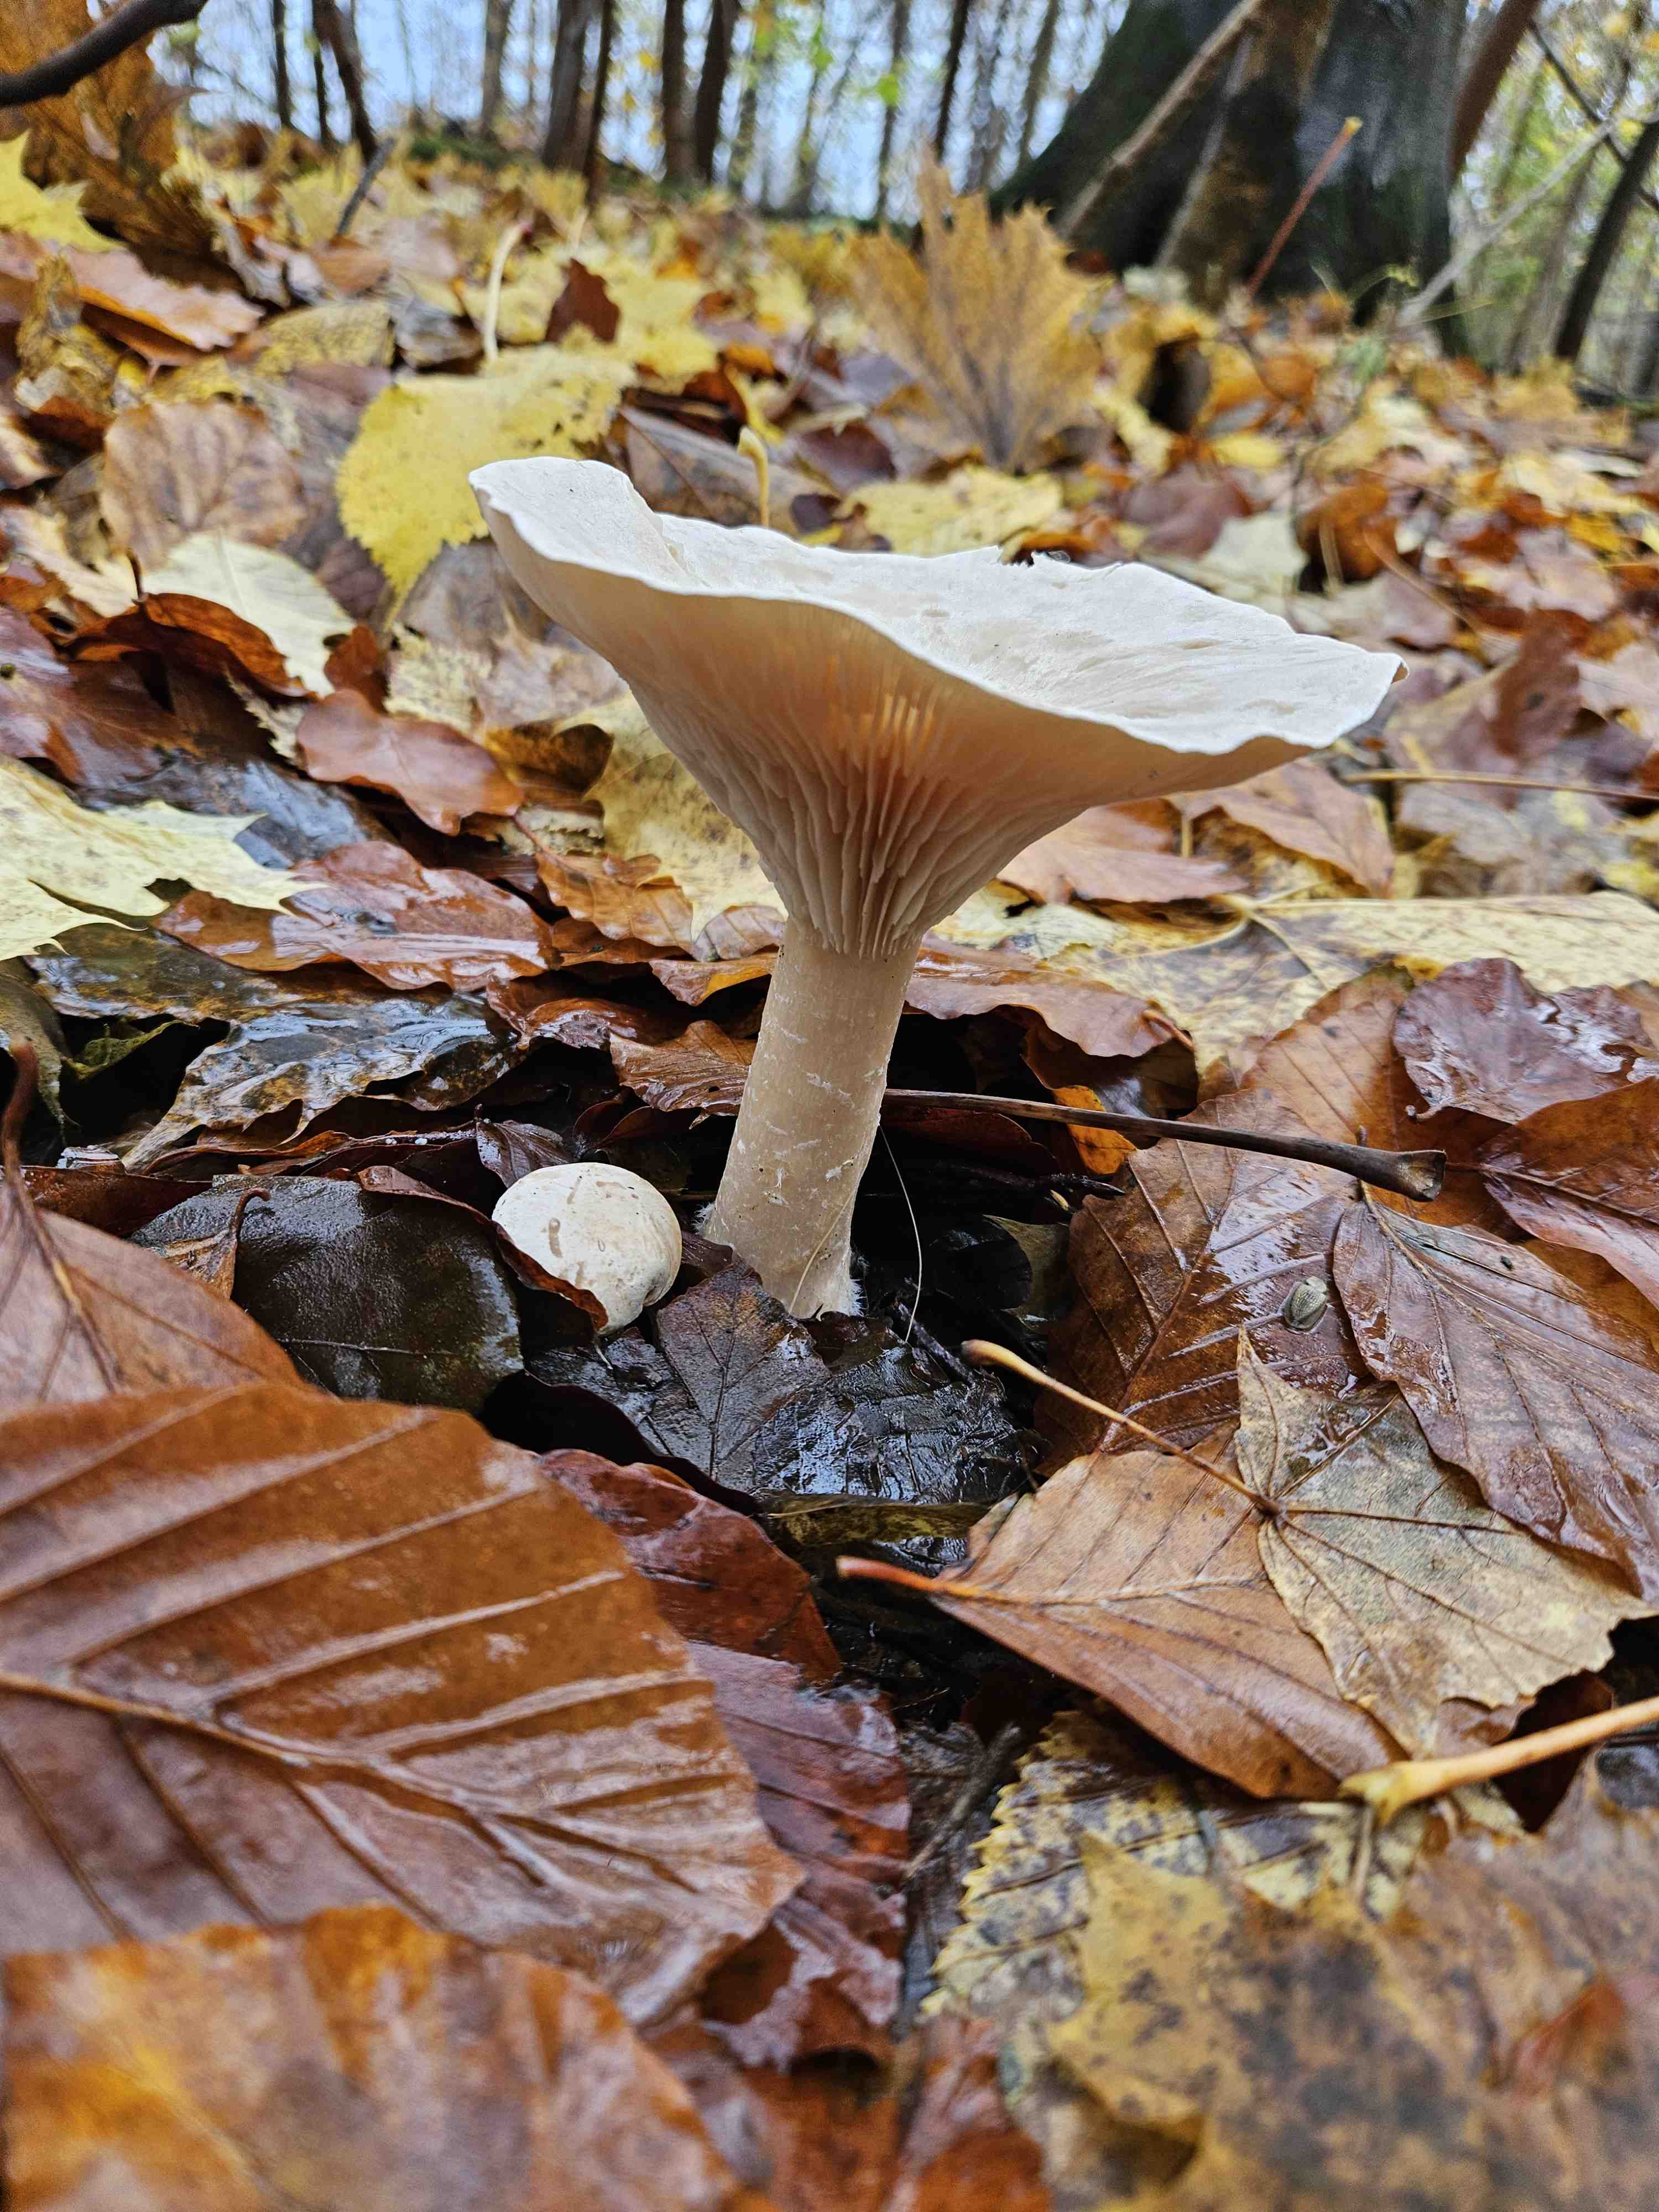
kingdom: Fungi
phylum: Basidiomycota
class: Agaricomycetes
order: Agaricales
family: Tricholomataceae
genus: Infundibulicybe
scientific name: Infundibulicybe geotropa
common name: stor tragthat
